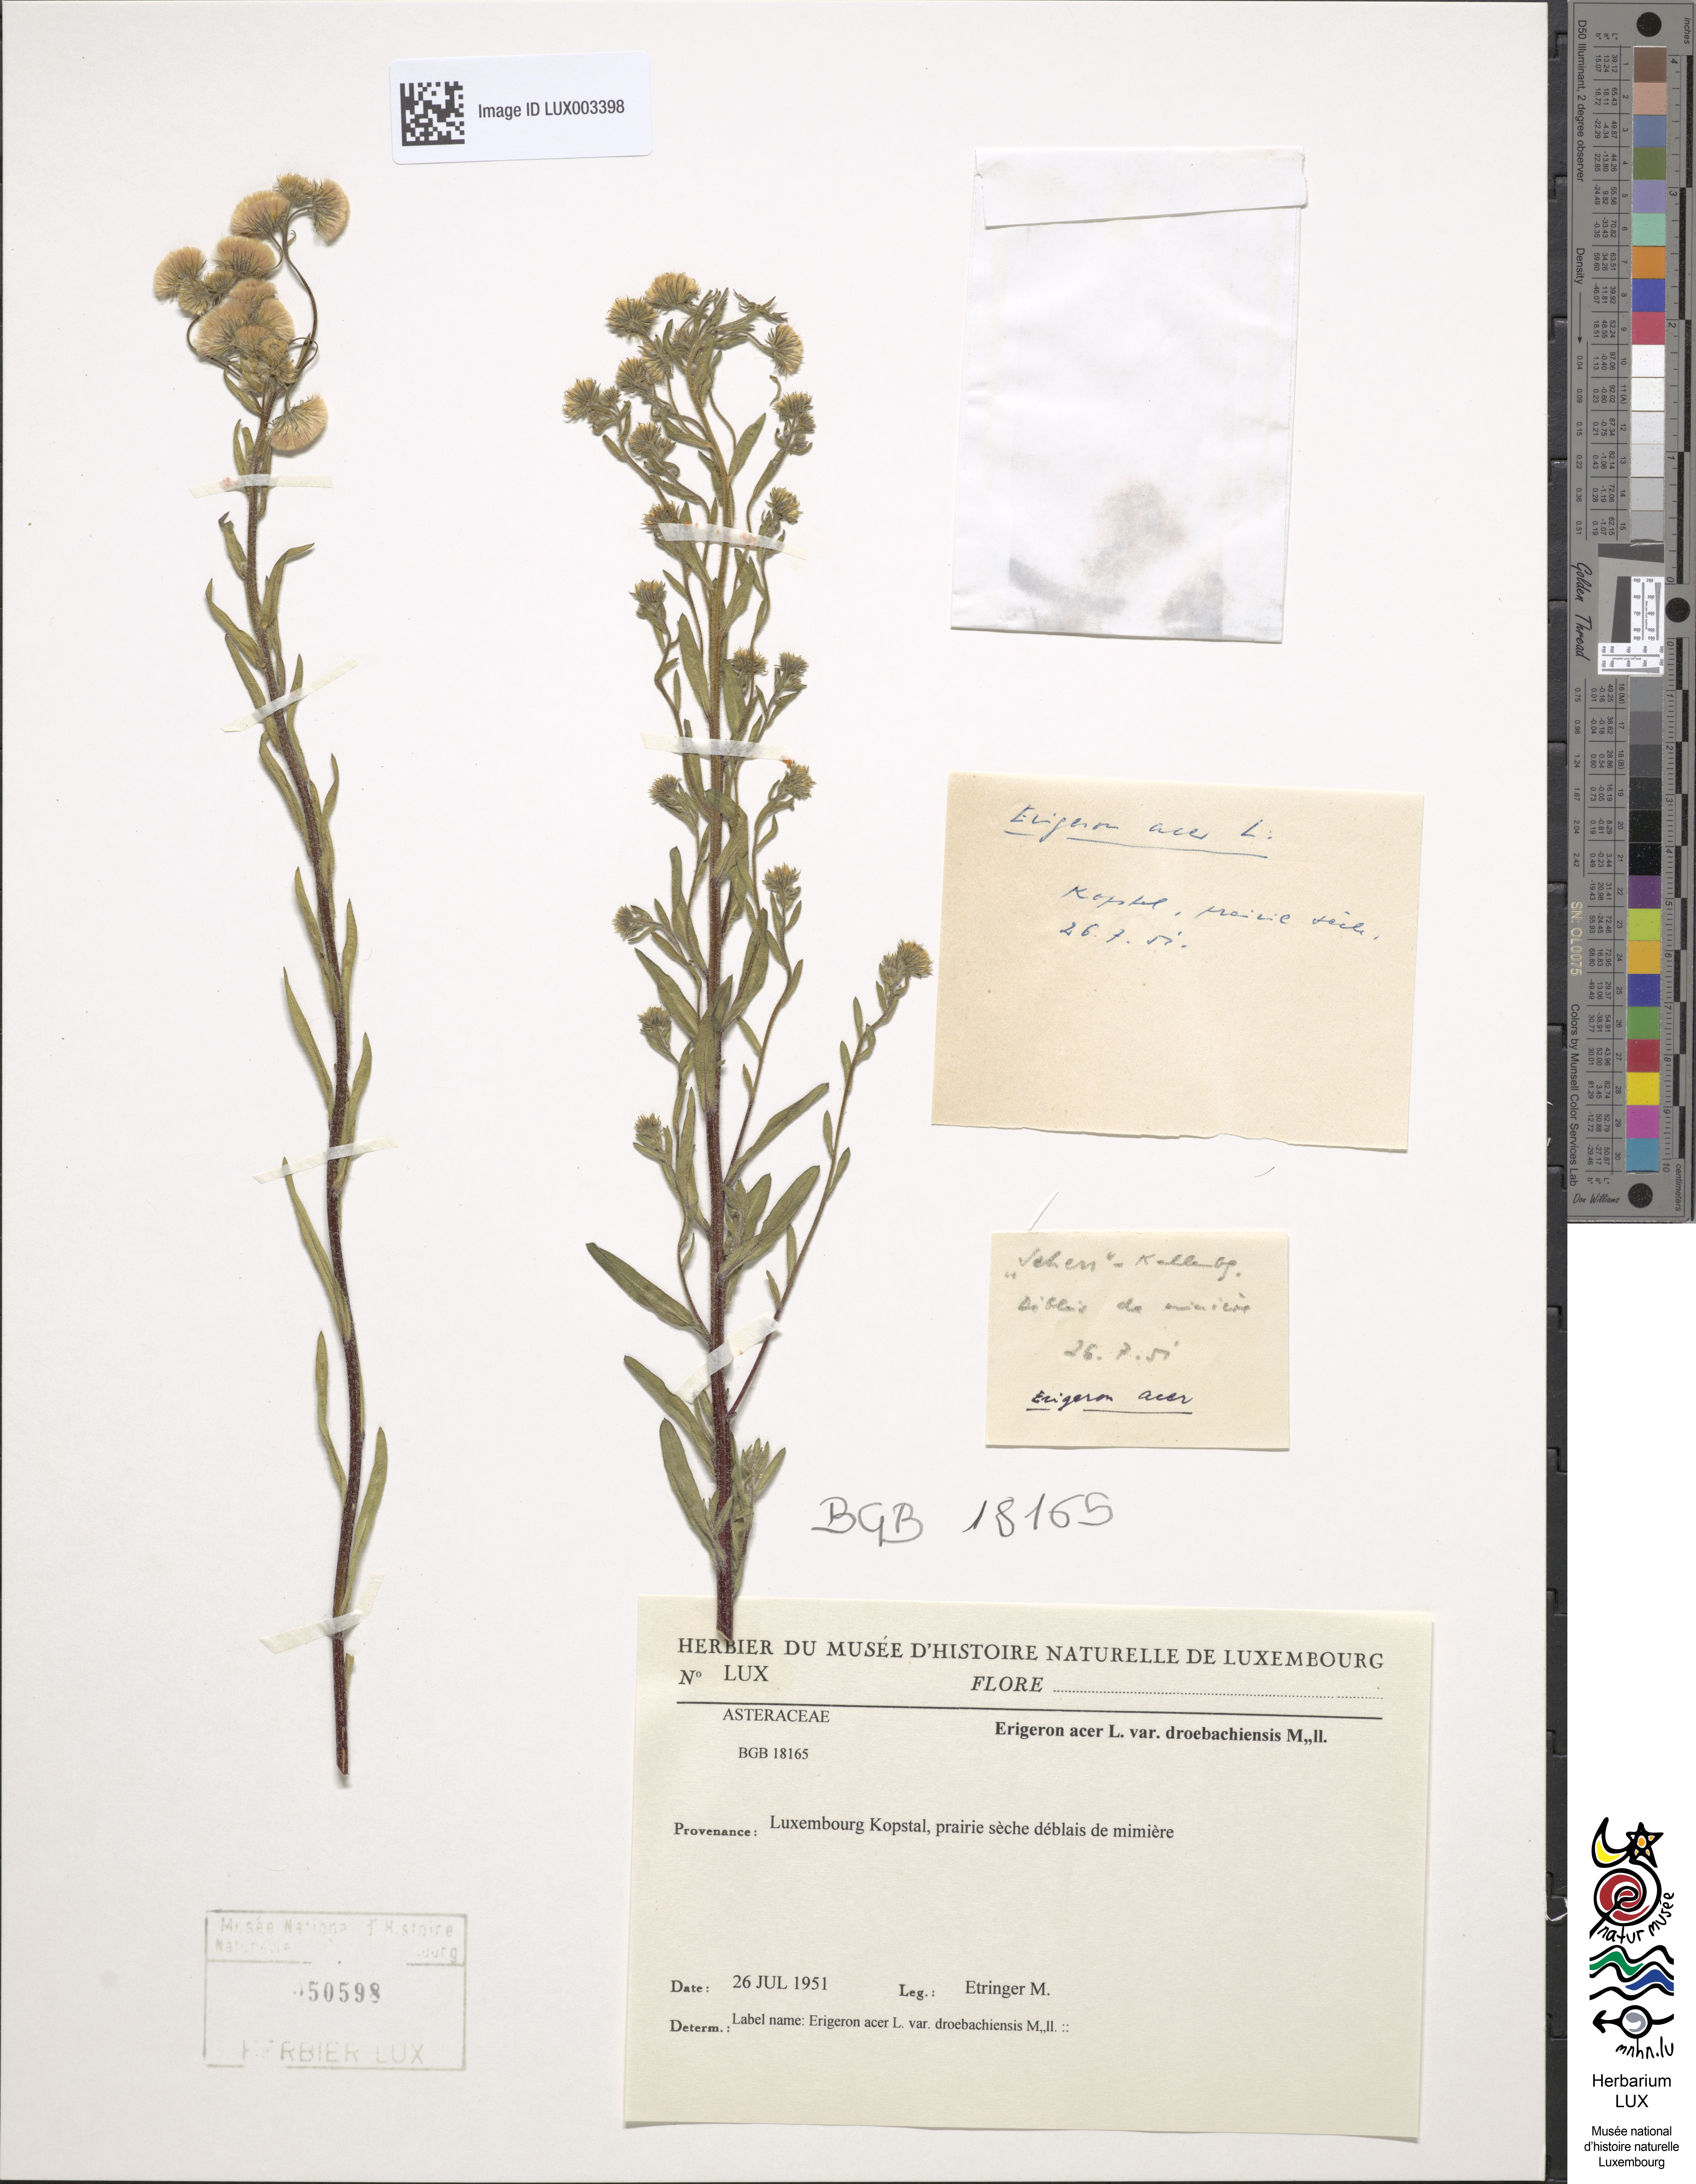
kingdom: Plantae
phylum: Tracheophyta
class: Magnoliopsida
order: Asterales
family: Asteraceae
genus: Erigeron
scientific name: Erigeron droebachiensis
